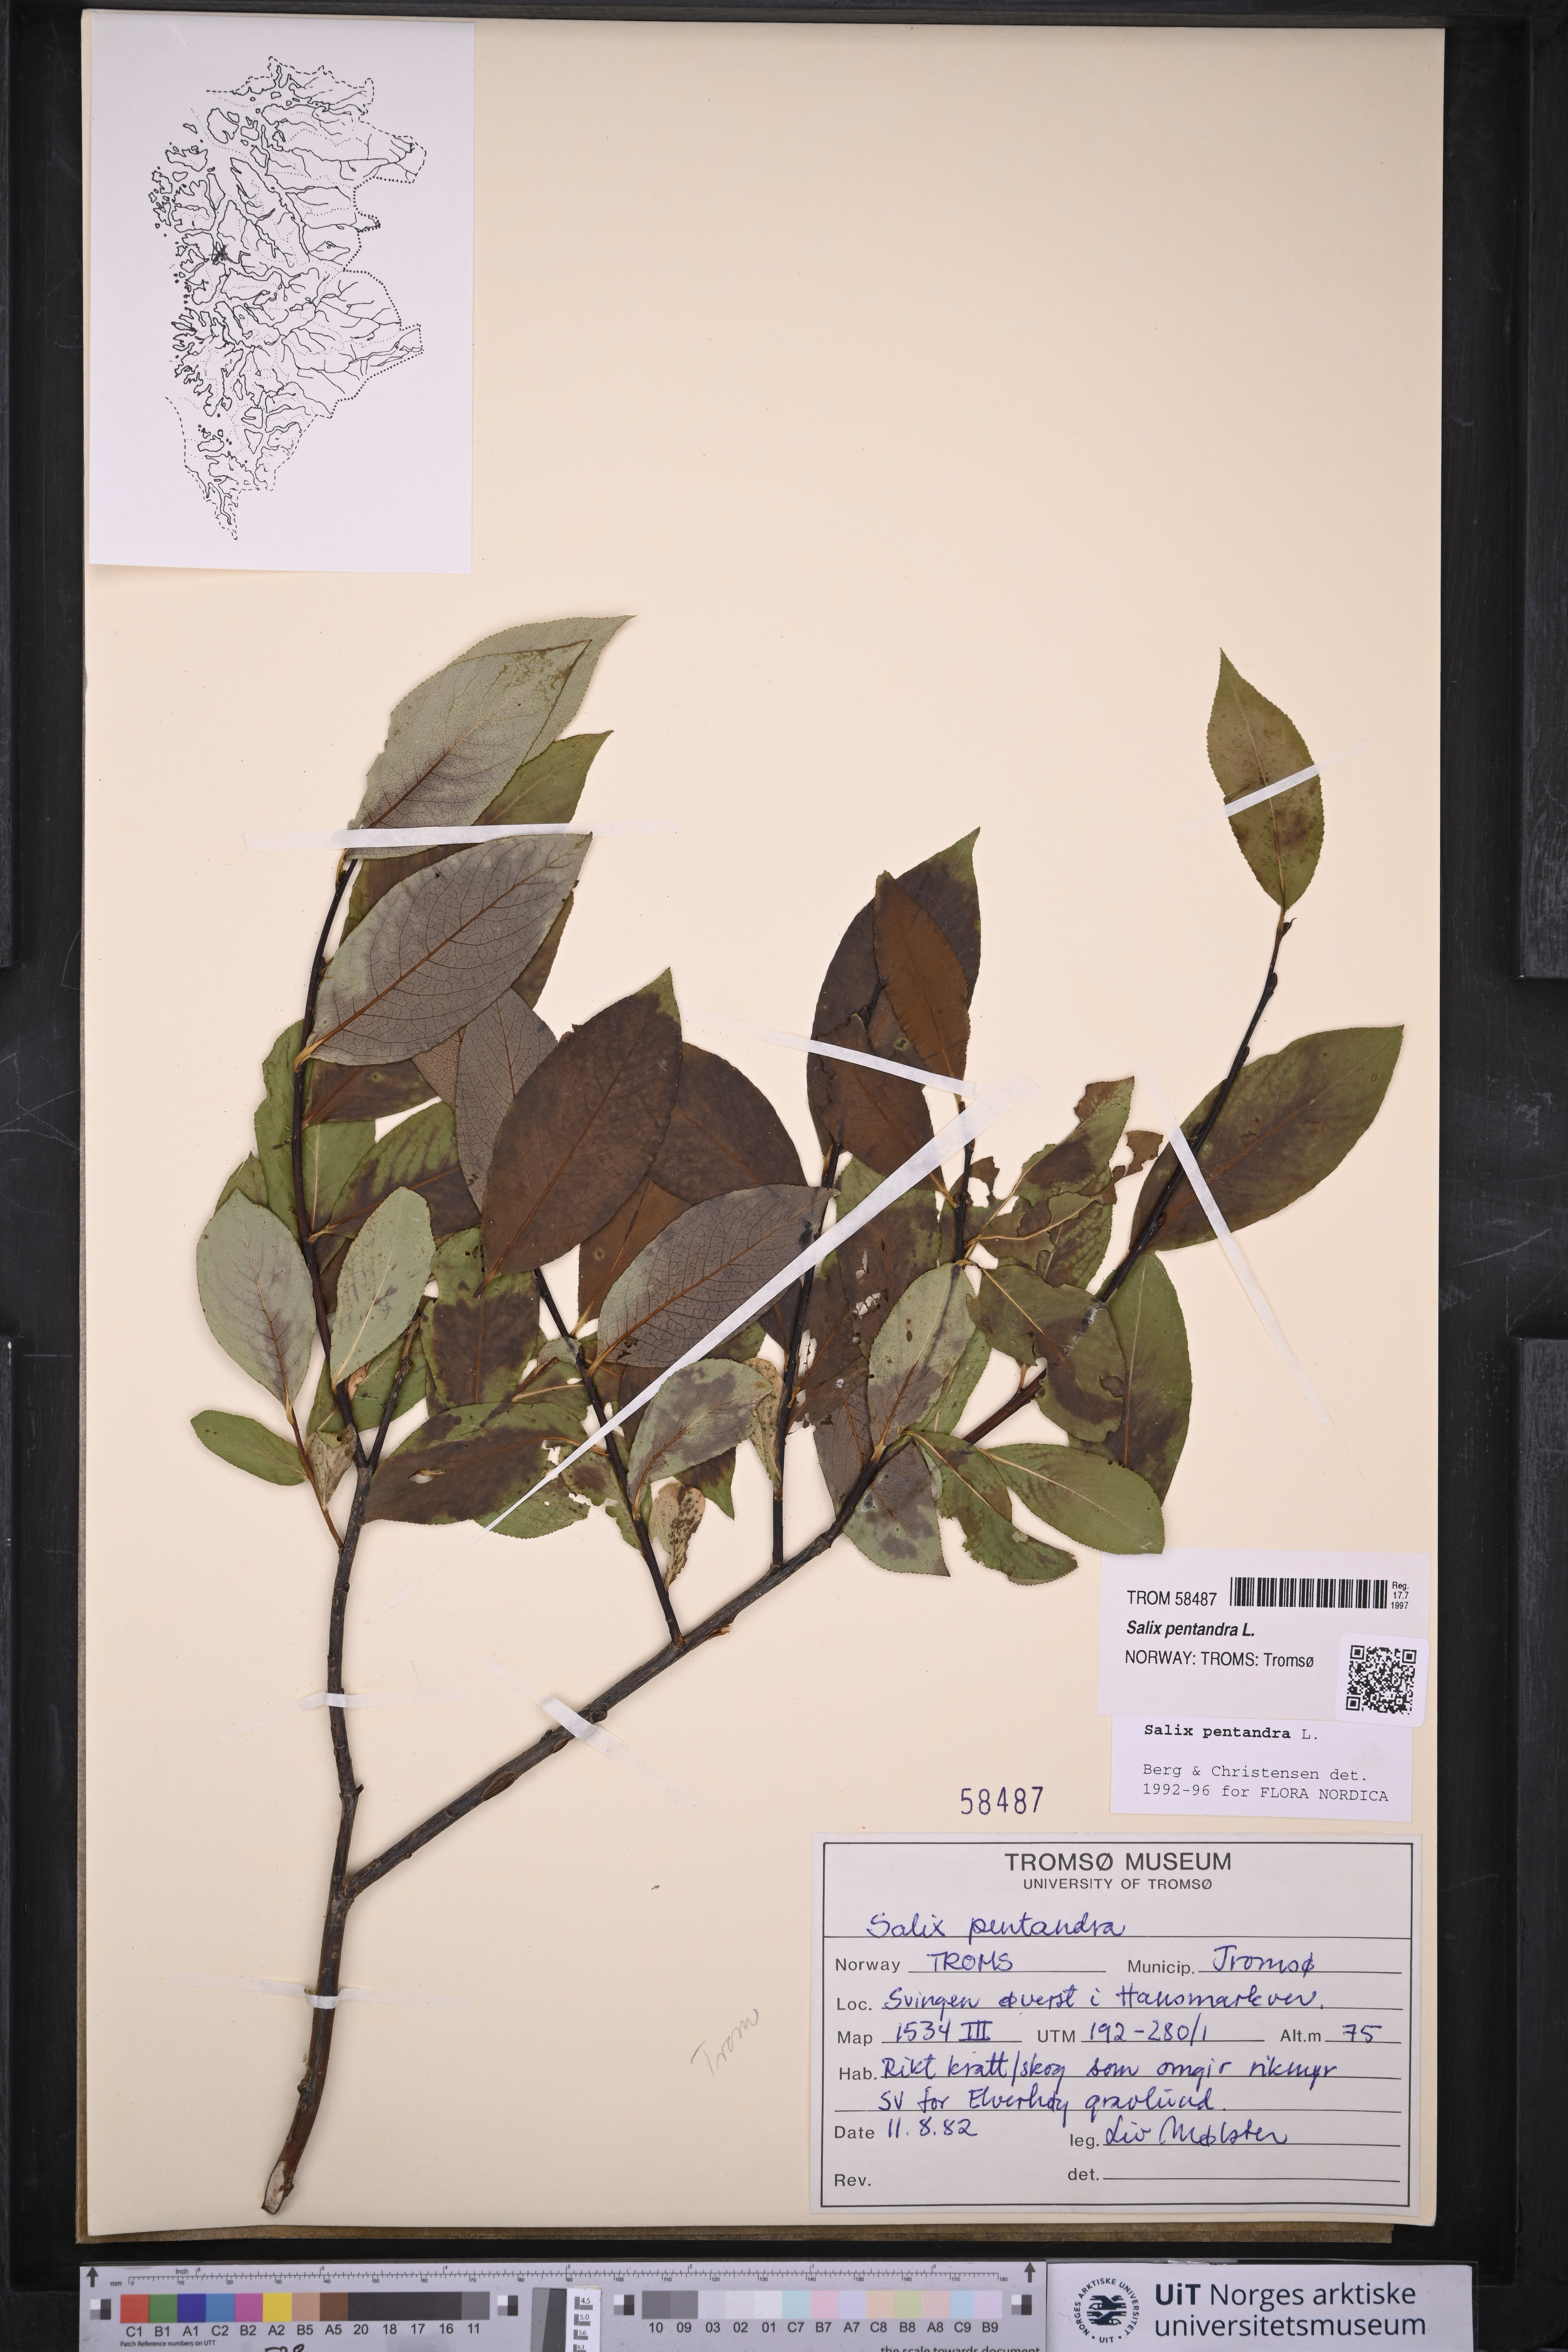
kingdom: Plantae
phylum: Tracheophyta
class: Magnoliopsida
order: Malpighiales
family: Salicaceae
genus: Salix
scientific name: Salix pentandra
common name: Bay willow
